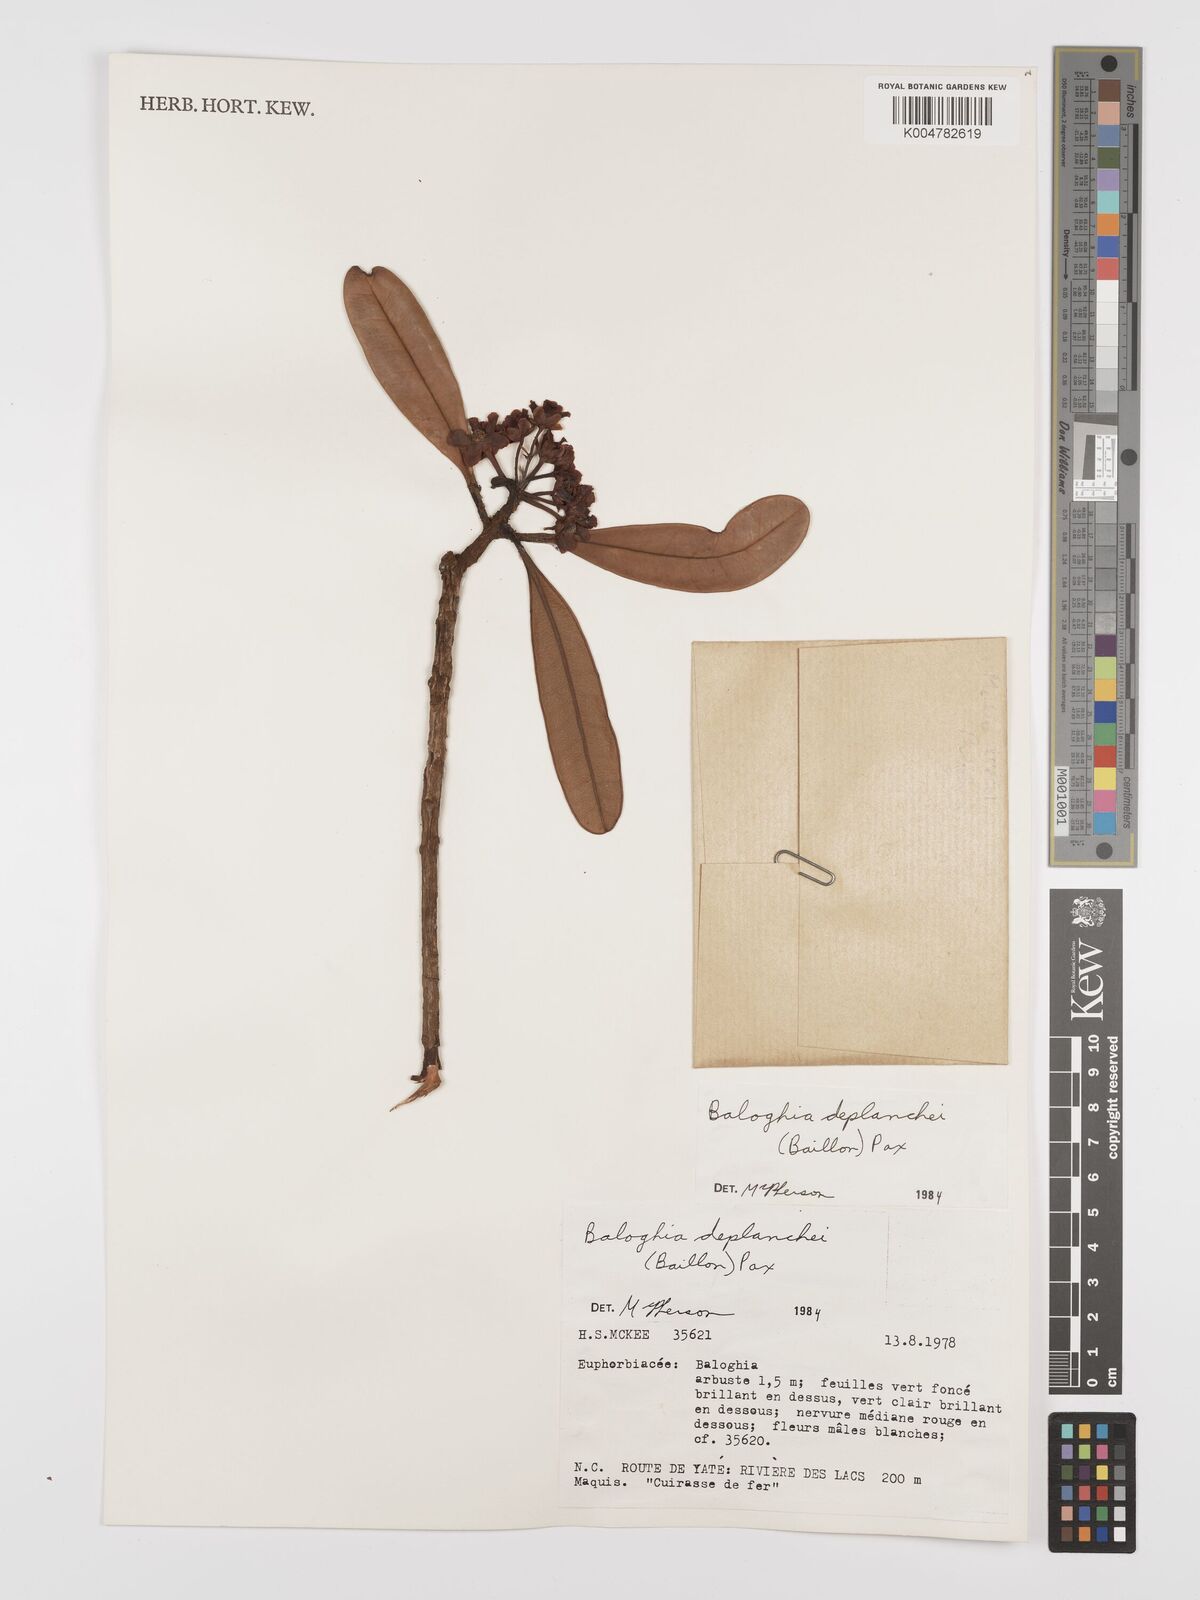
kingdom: Plantae
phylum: Tracheophyta
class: Magnoliopsida
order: Malpighiales
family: Euphorbiaceae
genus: Baloghia
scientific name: Baloghia deplanchei
